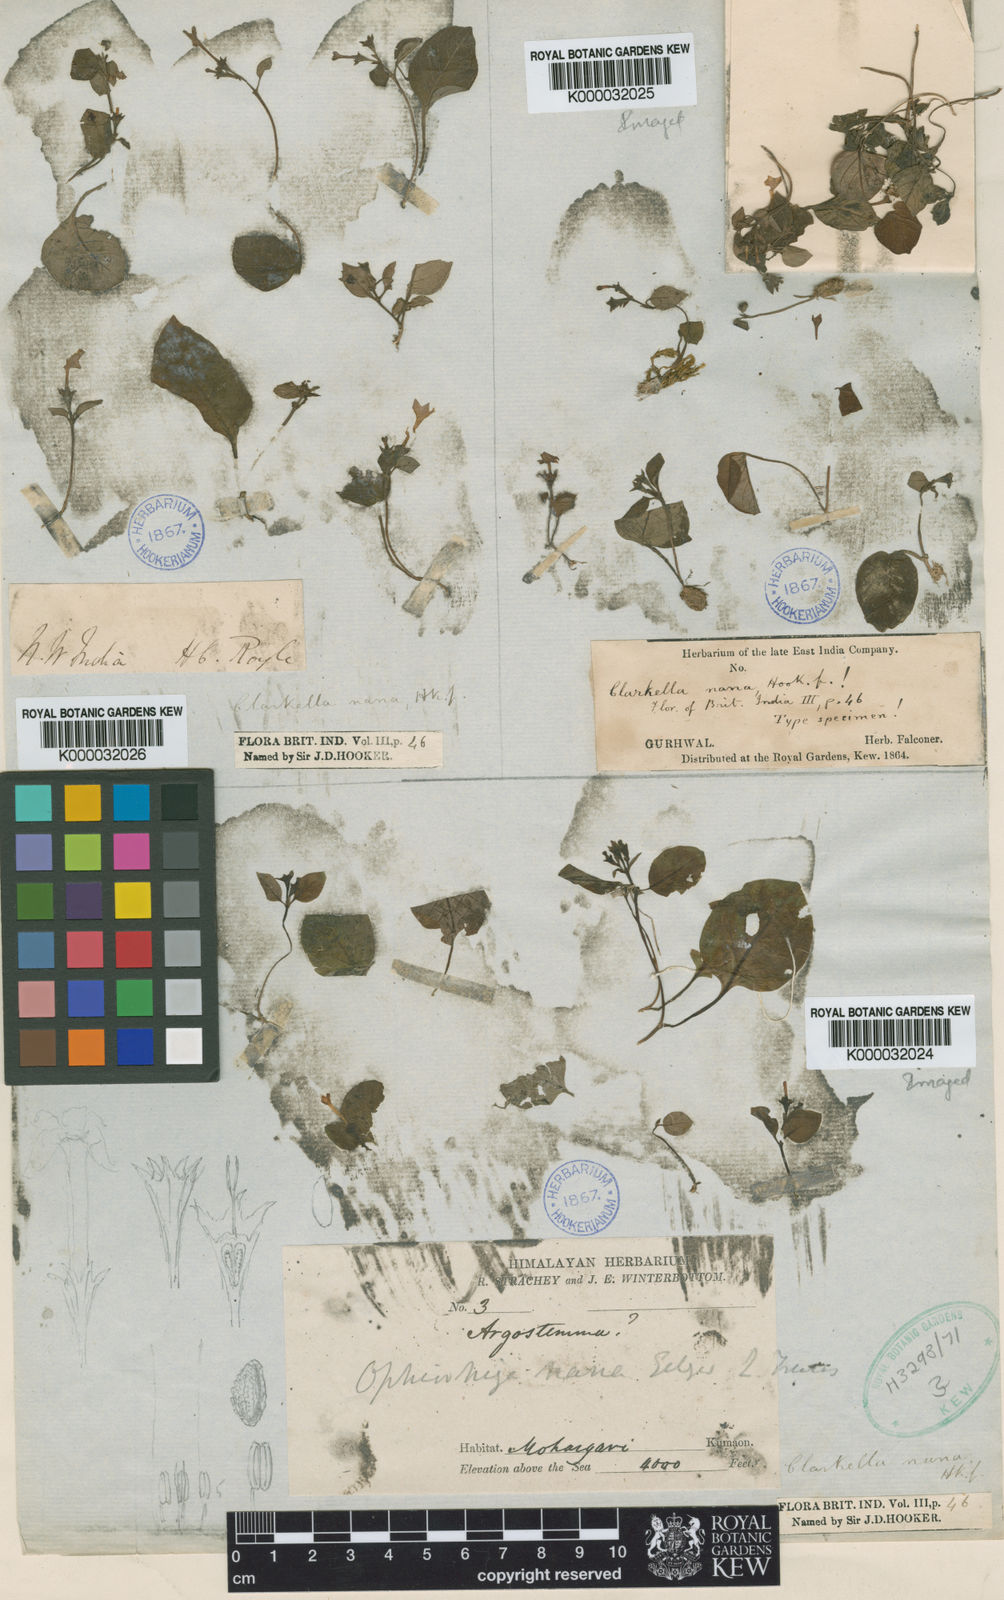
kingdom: Plantae
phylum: Tracheophyta
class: Magnoliopsida
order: Gentianales
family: Rubiaceae
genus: Clarkella
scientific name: Clarkella nana
